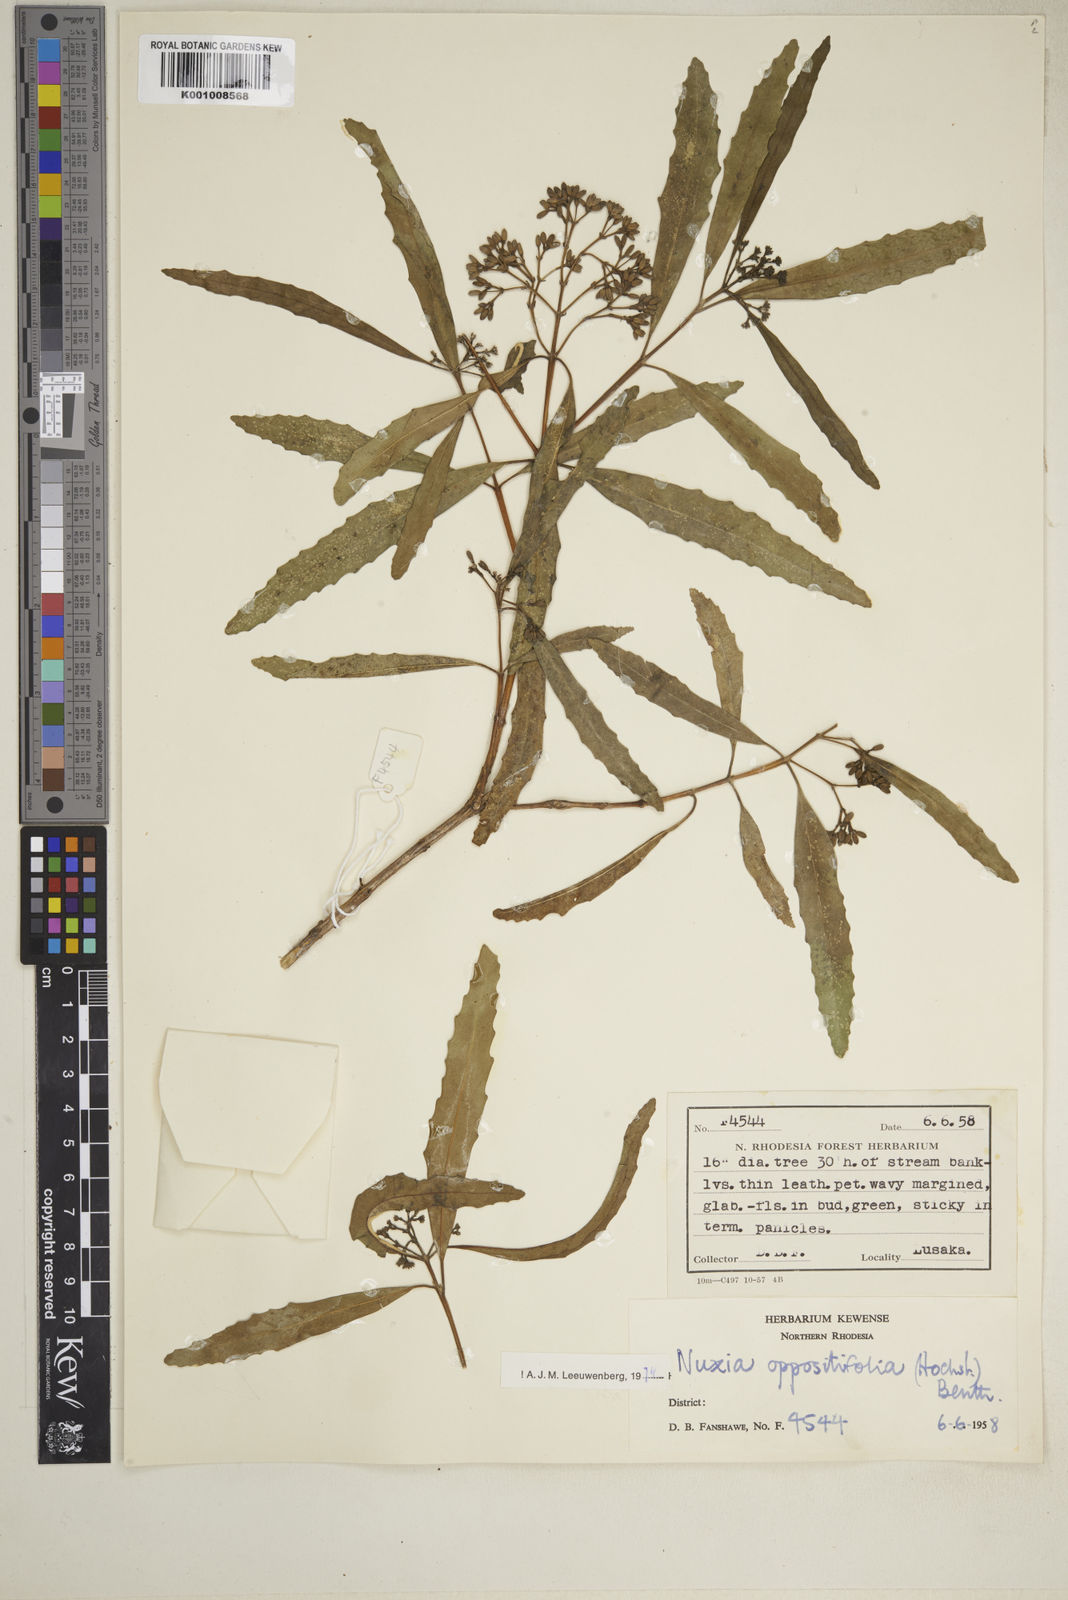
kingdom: Plantae
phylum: Tracheophyta
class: Magnoliopsida
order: Lamiales
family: Stilbaceae
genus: Nuxia
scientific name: Nuxia oppositifolia
